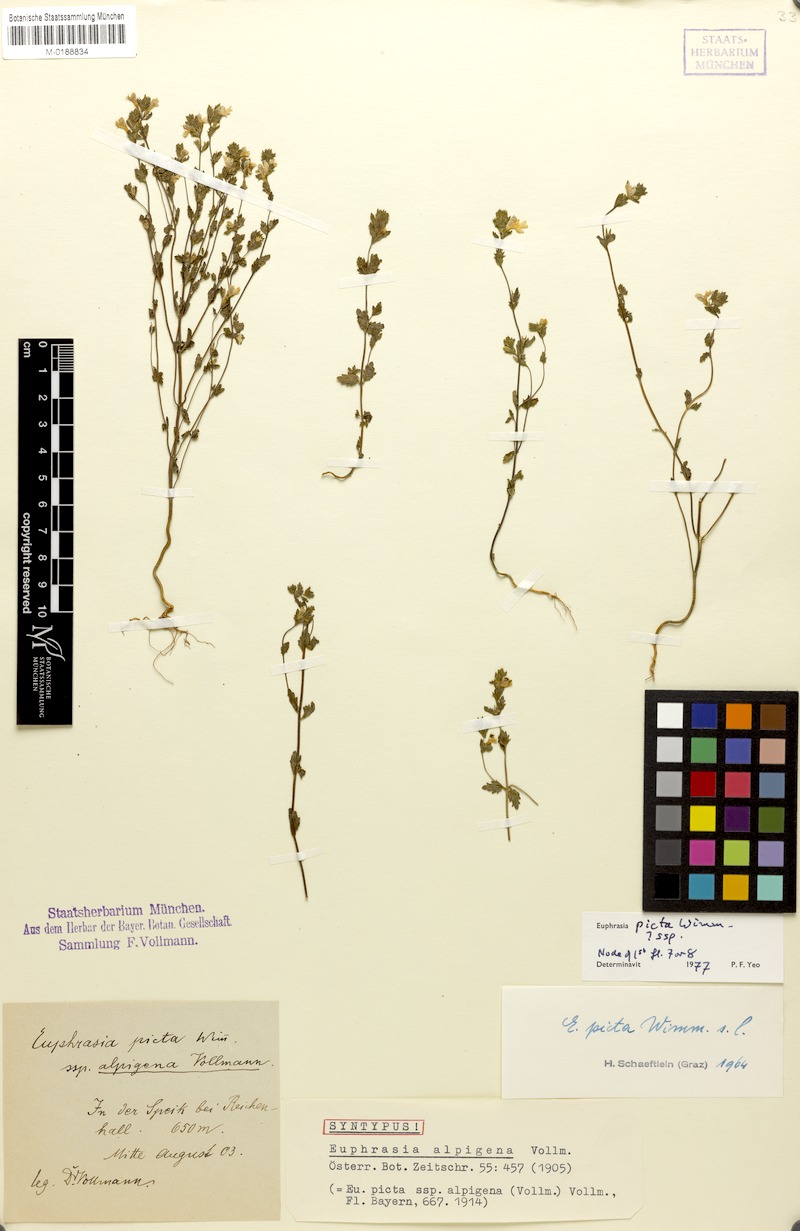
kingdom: Plantae
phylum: Tracheophyta
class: Magnoliopsida
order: Lamiales
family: Orobanchaceae
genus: Euphrasia
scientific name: Euphrasia picta
